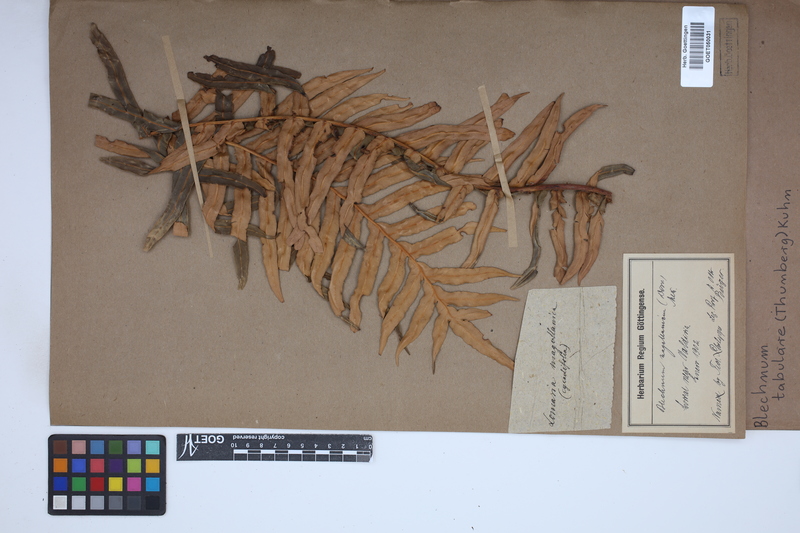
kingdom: Plantae
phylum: Tracheophyta
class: Polypodiopsida
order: Polypodiales
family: Blechnaceae
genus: Lomariocycas
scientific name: Lomariocycas tabularis
